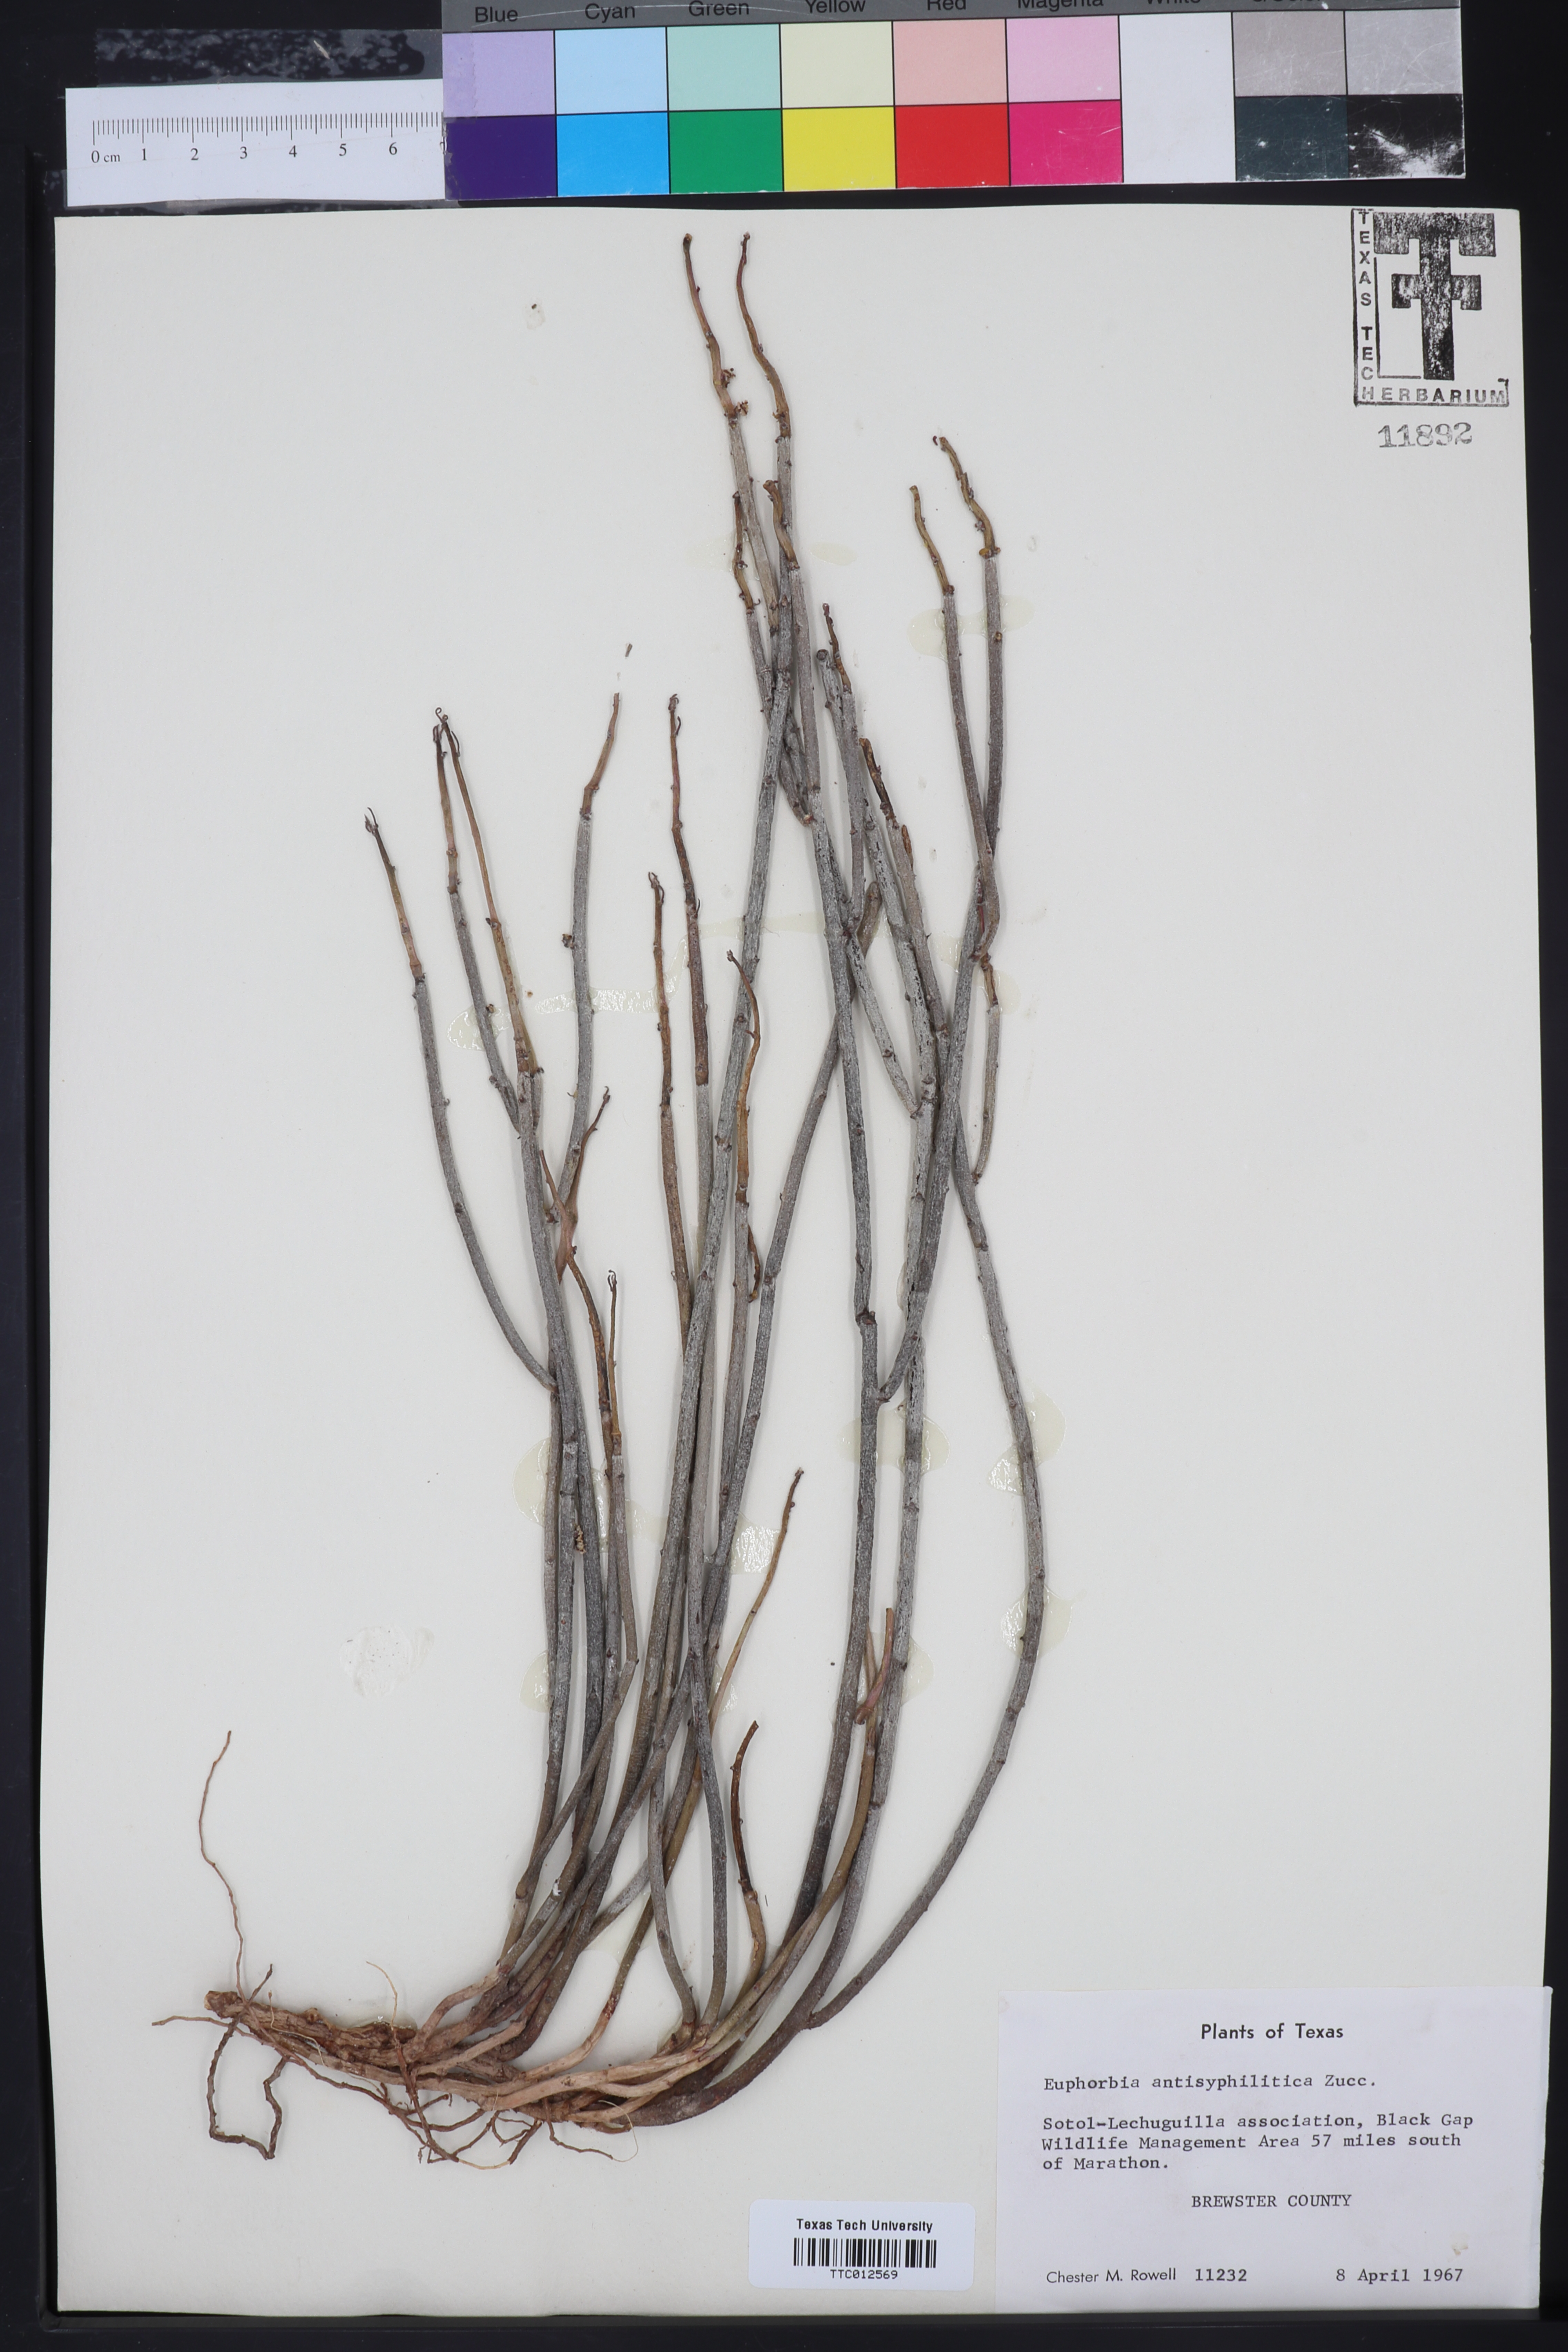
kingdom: Plantae
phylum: Tracheophyta
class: Magnoliopsida
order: Malpighiales
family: Euphorbiaceae
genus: Euphorbia
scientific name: Euphorbia antisyphilitica
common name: Candelilla
